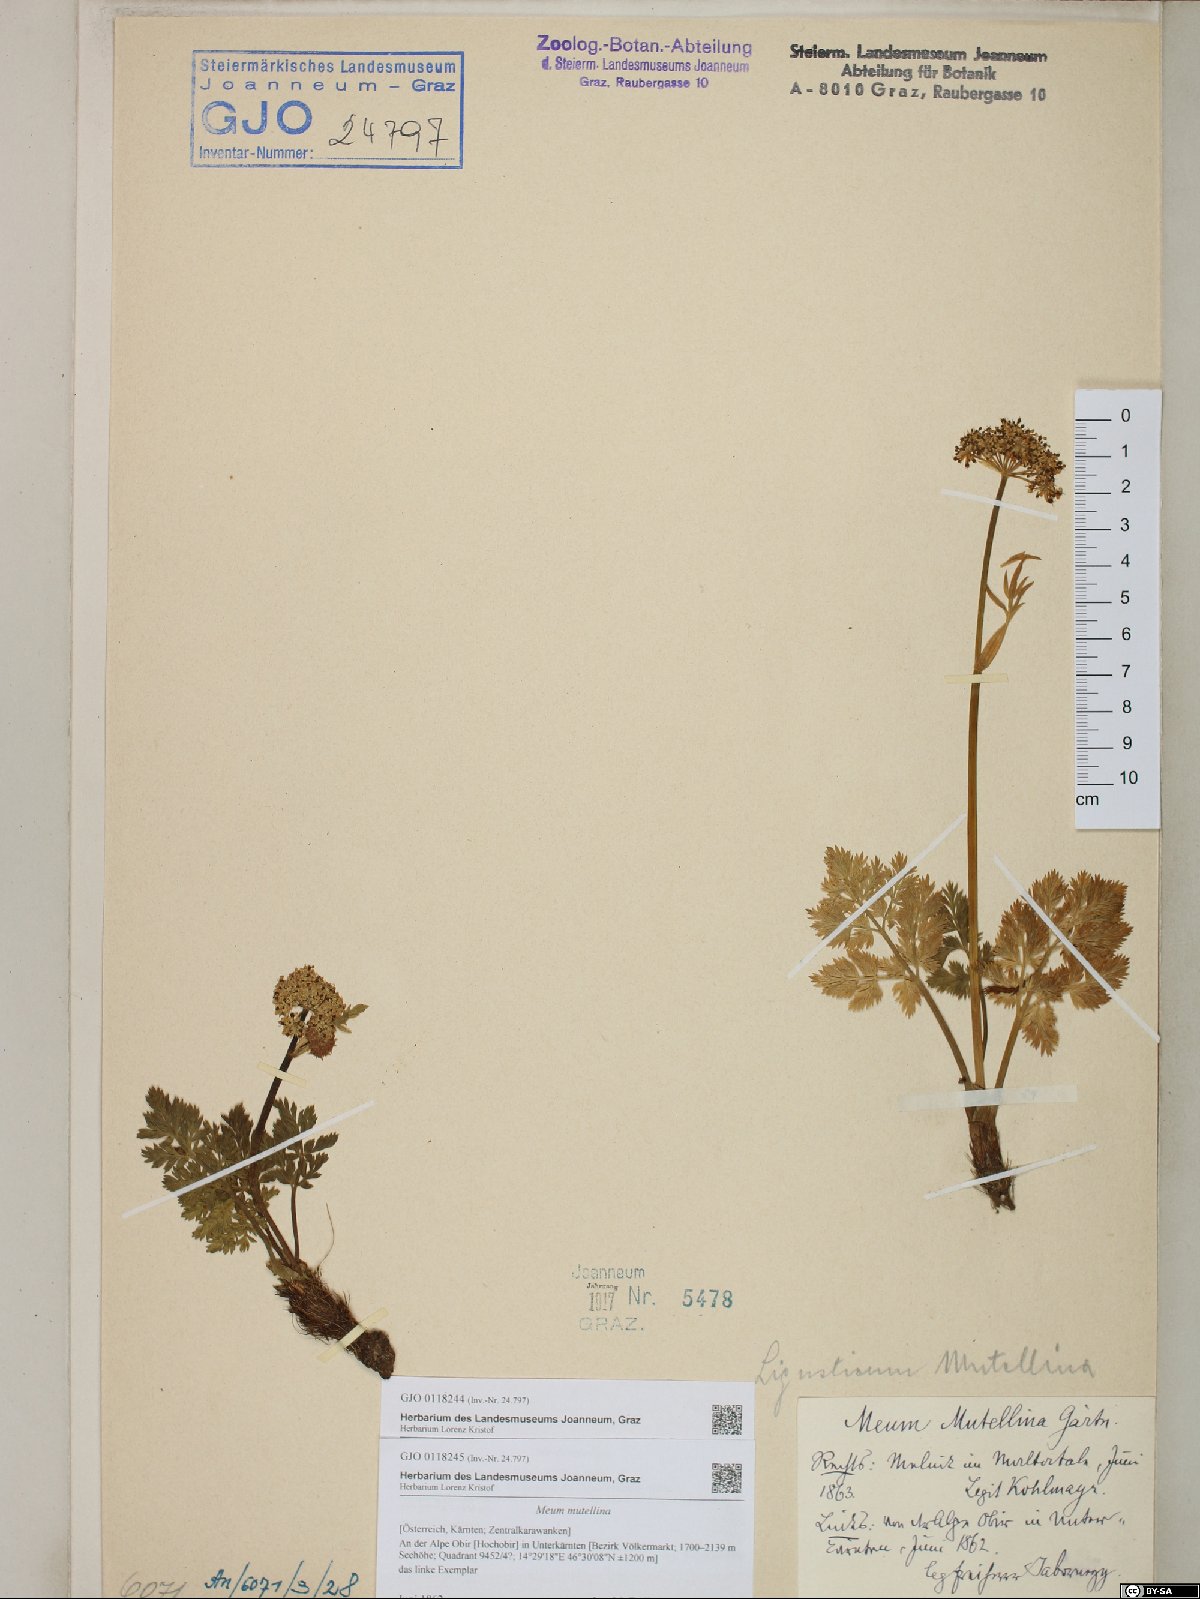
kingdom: Plantae
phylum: Tracheophyta
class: Magnoliopsida
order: Apiales
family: Apiaceae
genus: Mutellina
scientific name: Mutellina adonidifolia
